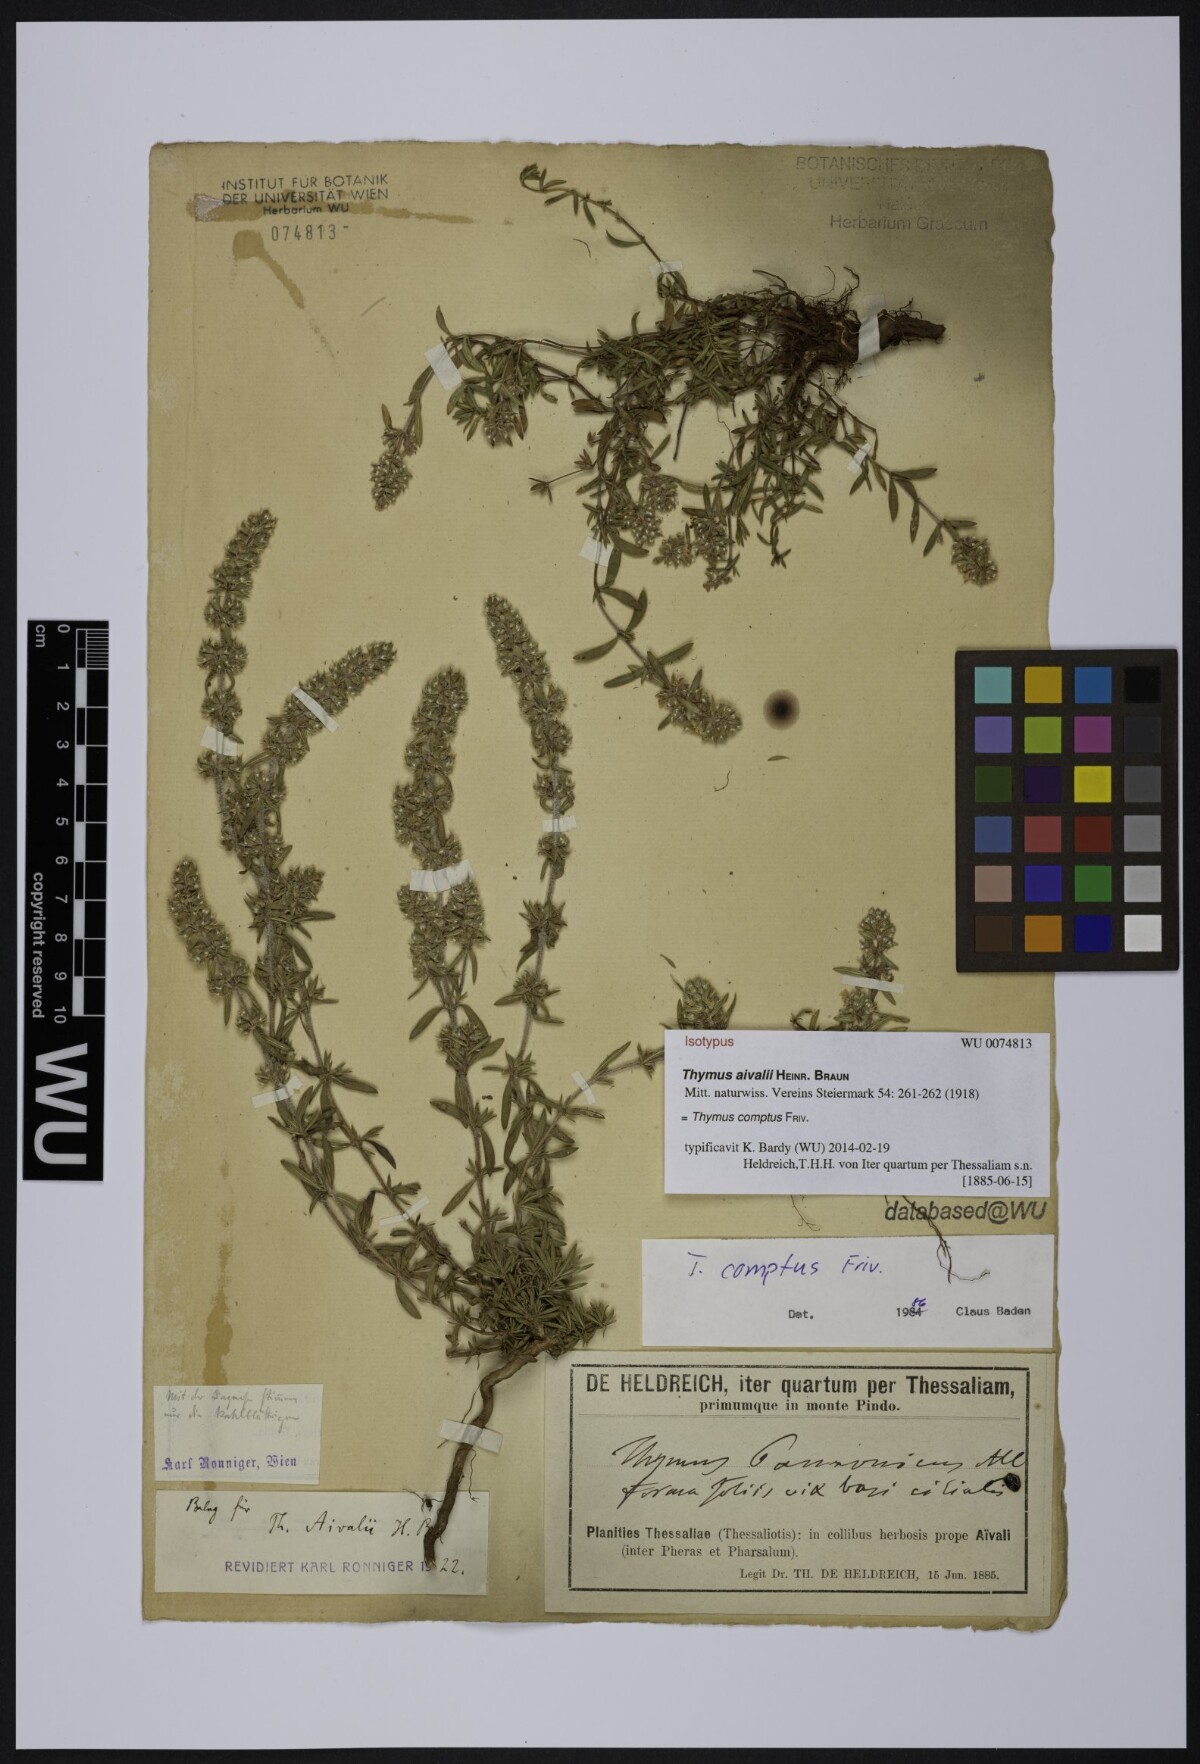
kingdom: Plantae
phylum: Tracheophyta
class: Magnoliopsida
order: Lamiales
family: Lamiaceae
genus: Thymus
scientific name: Thymus comptus
